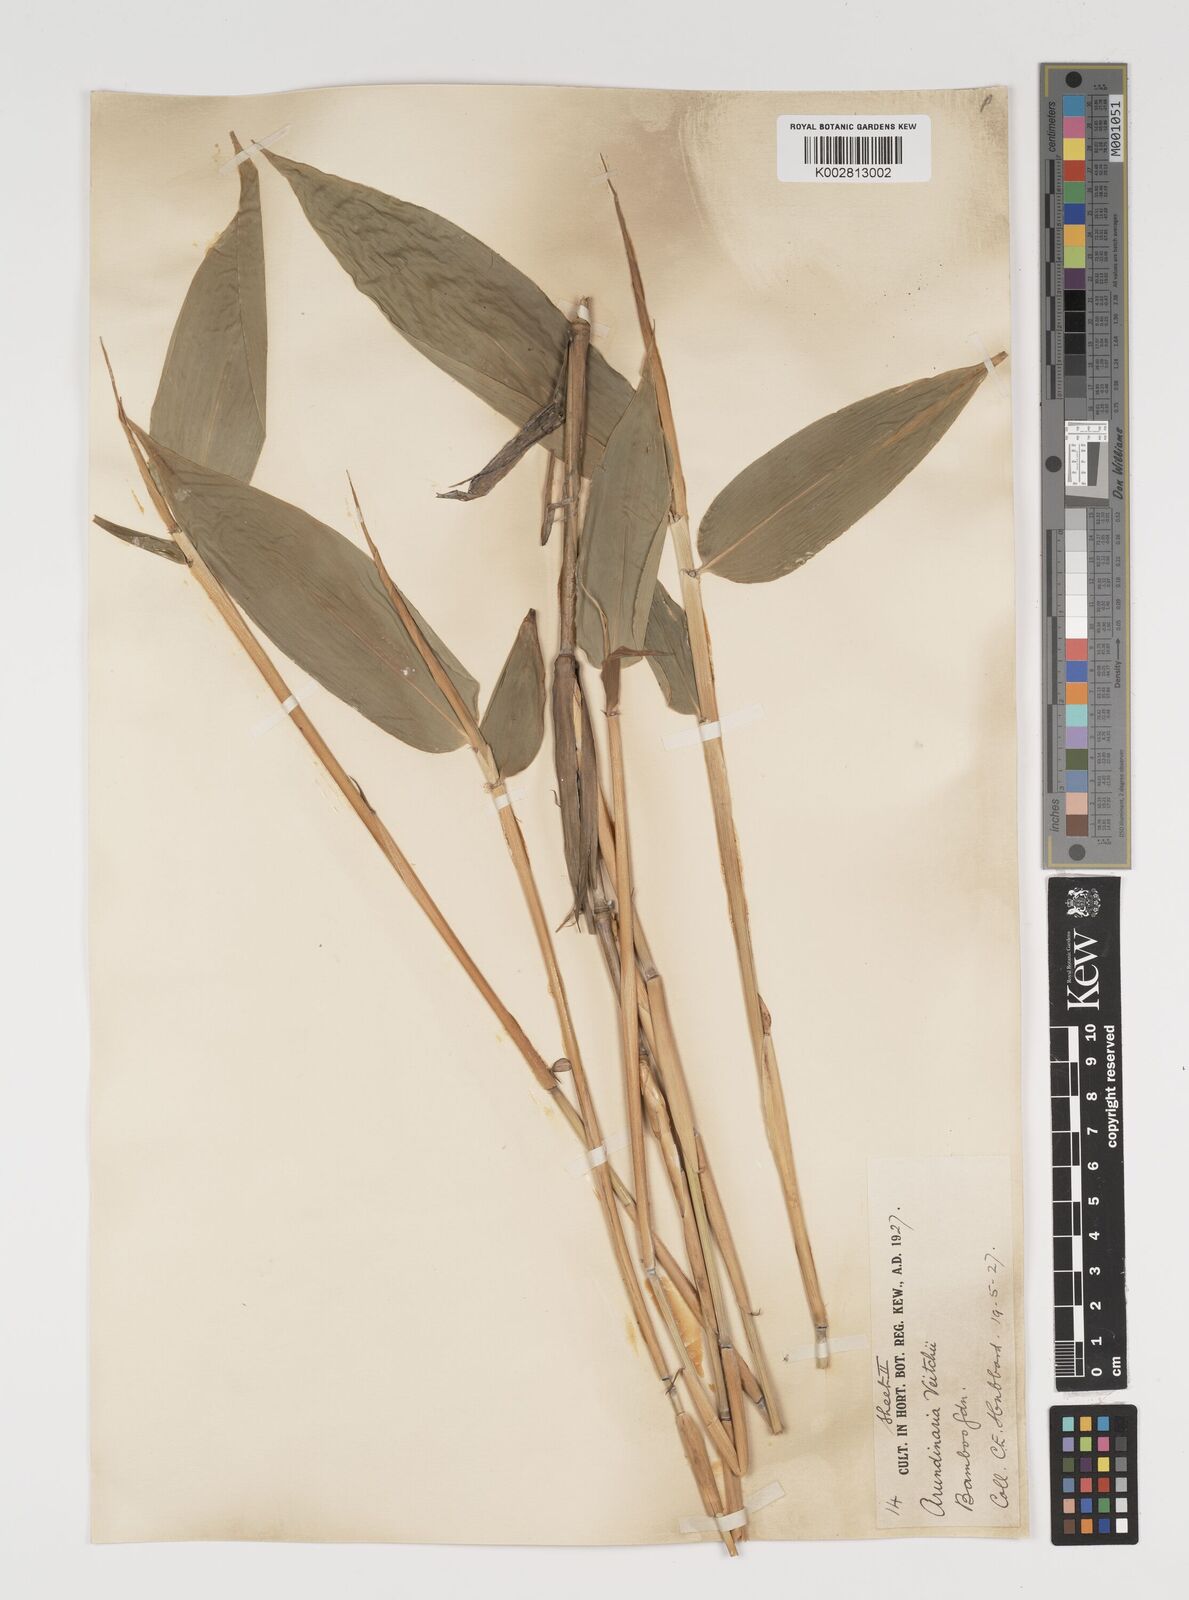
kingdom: Plantae
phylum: Tracheophyta
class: Liliopsida
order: Poales
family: Poaceae
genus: Sasa
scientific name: Sasa veitchii
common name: Veitch's bamboo
